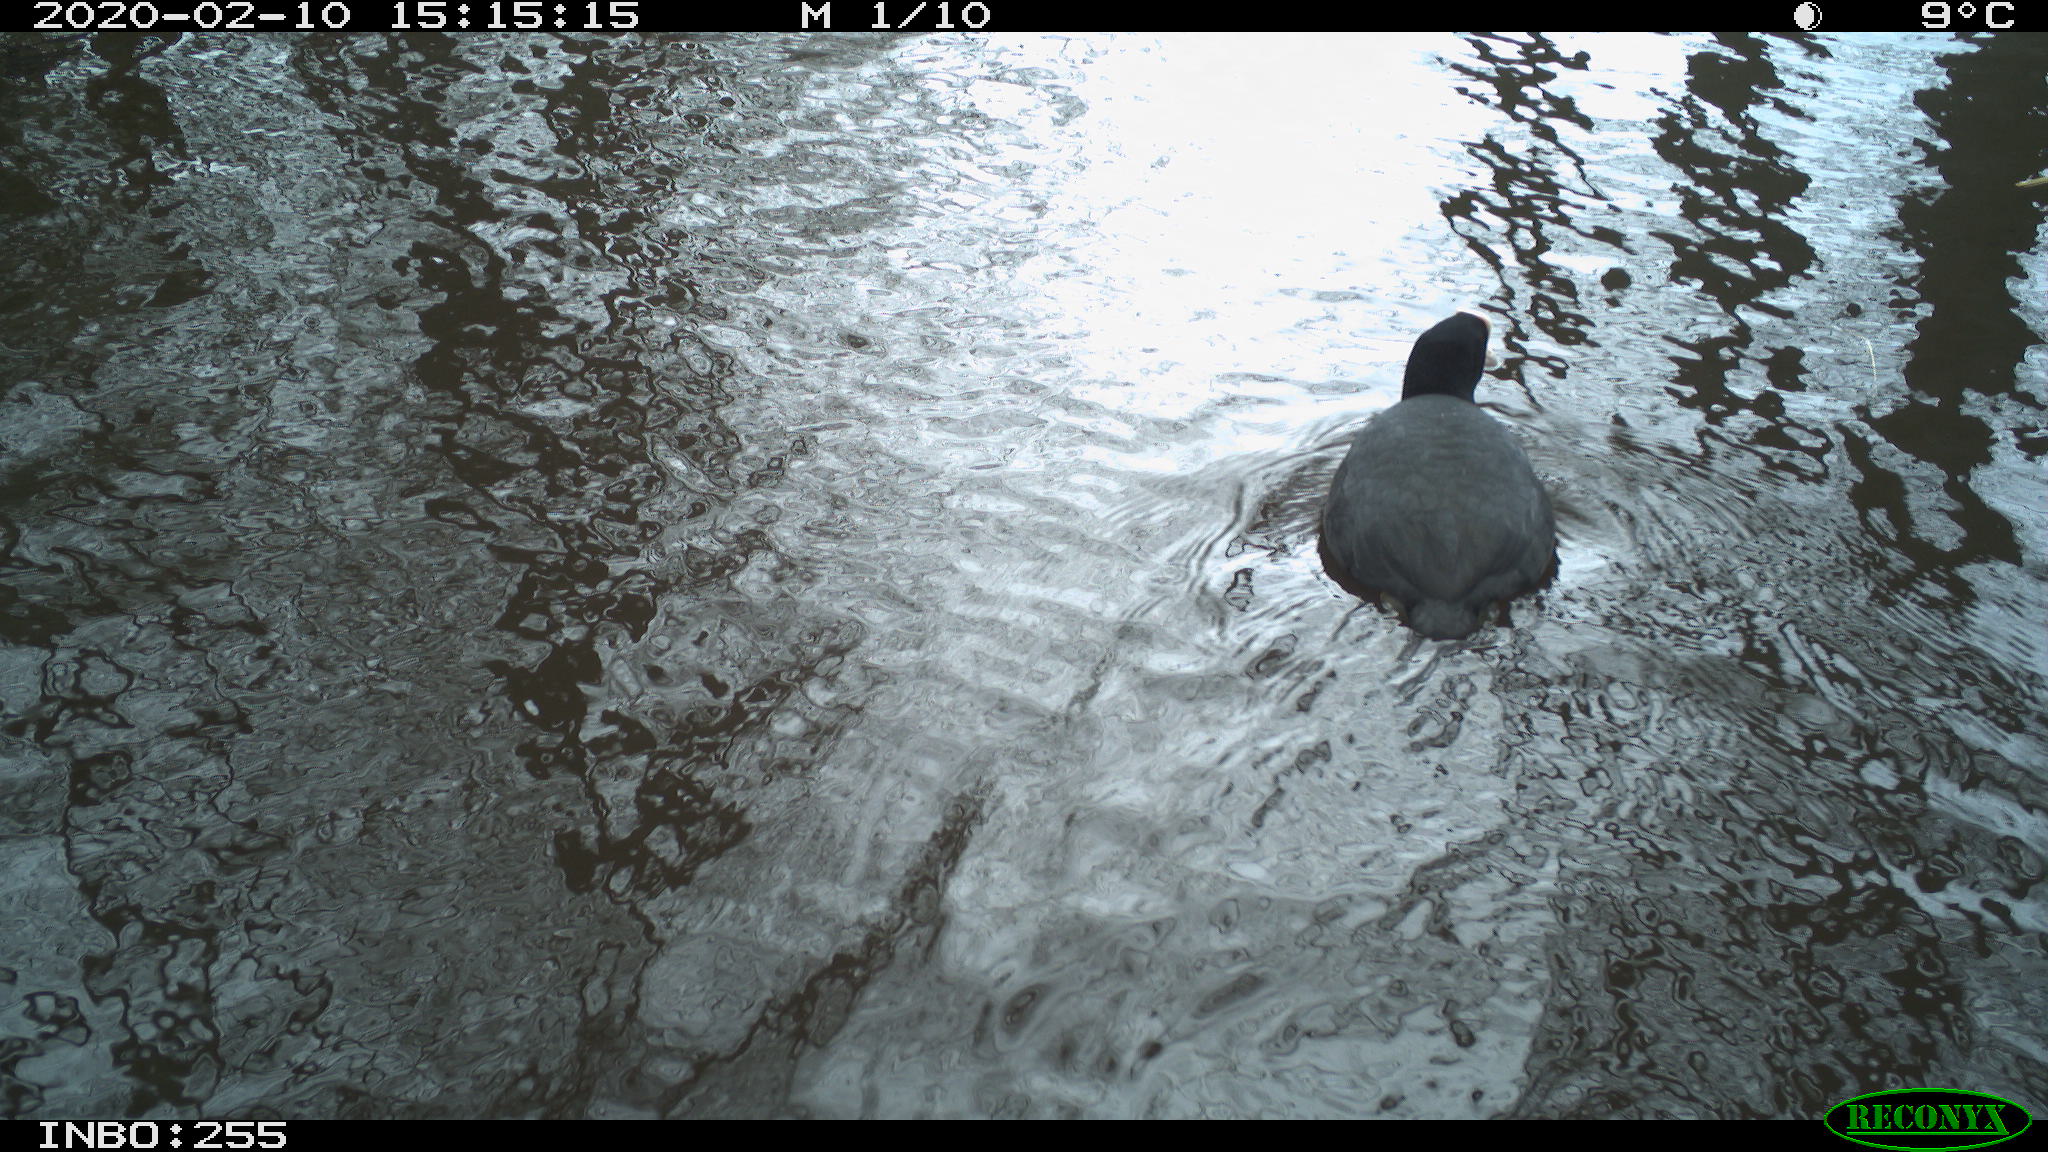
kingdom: Animalia
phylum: Chordata
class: Aves
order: Gruiformes
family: Rallidae
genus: Fulica
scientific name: Fulica atra
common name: Eurasian coot
